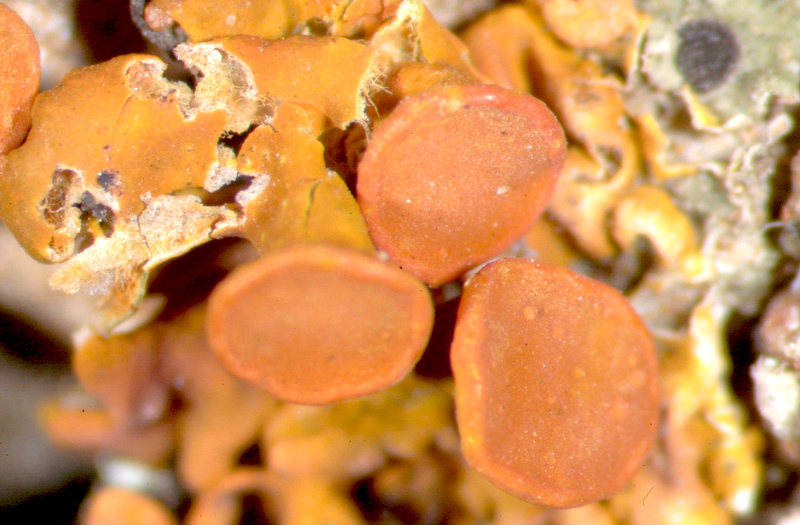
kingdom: Fungi
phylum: Ascomycota
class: Lecanoromycetes
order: Teloschistales
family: Teloschistaceae
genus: Dufourea
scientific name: Dufourea turbinata
